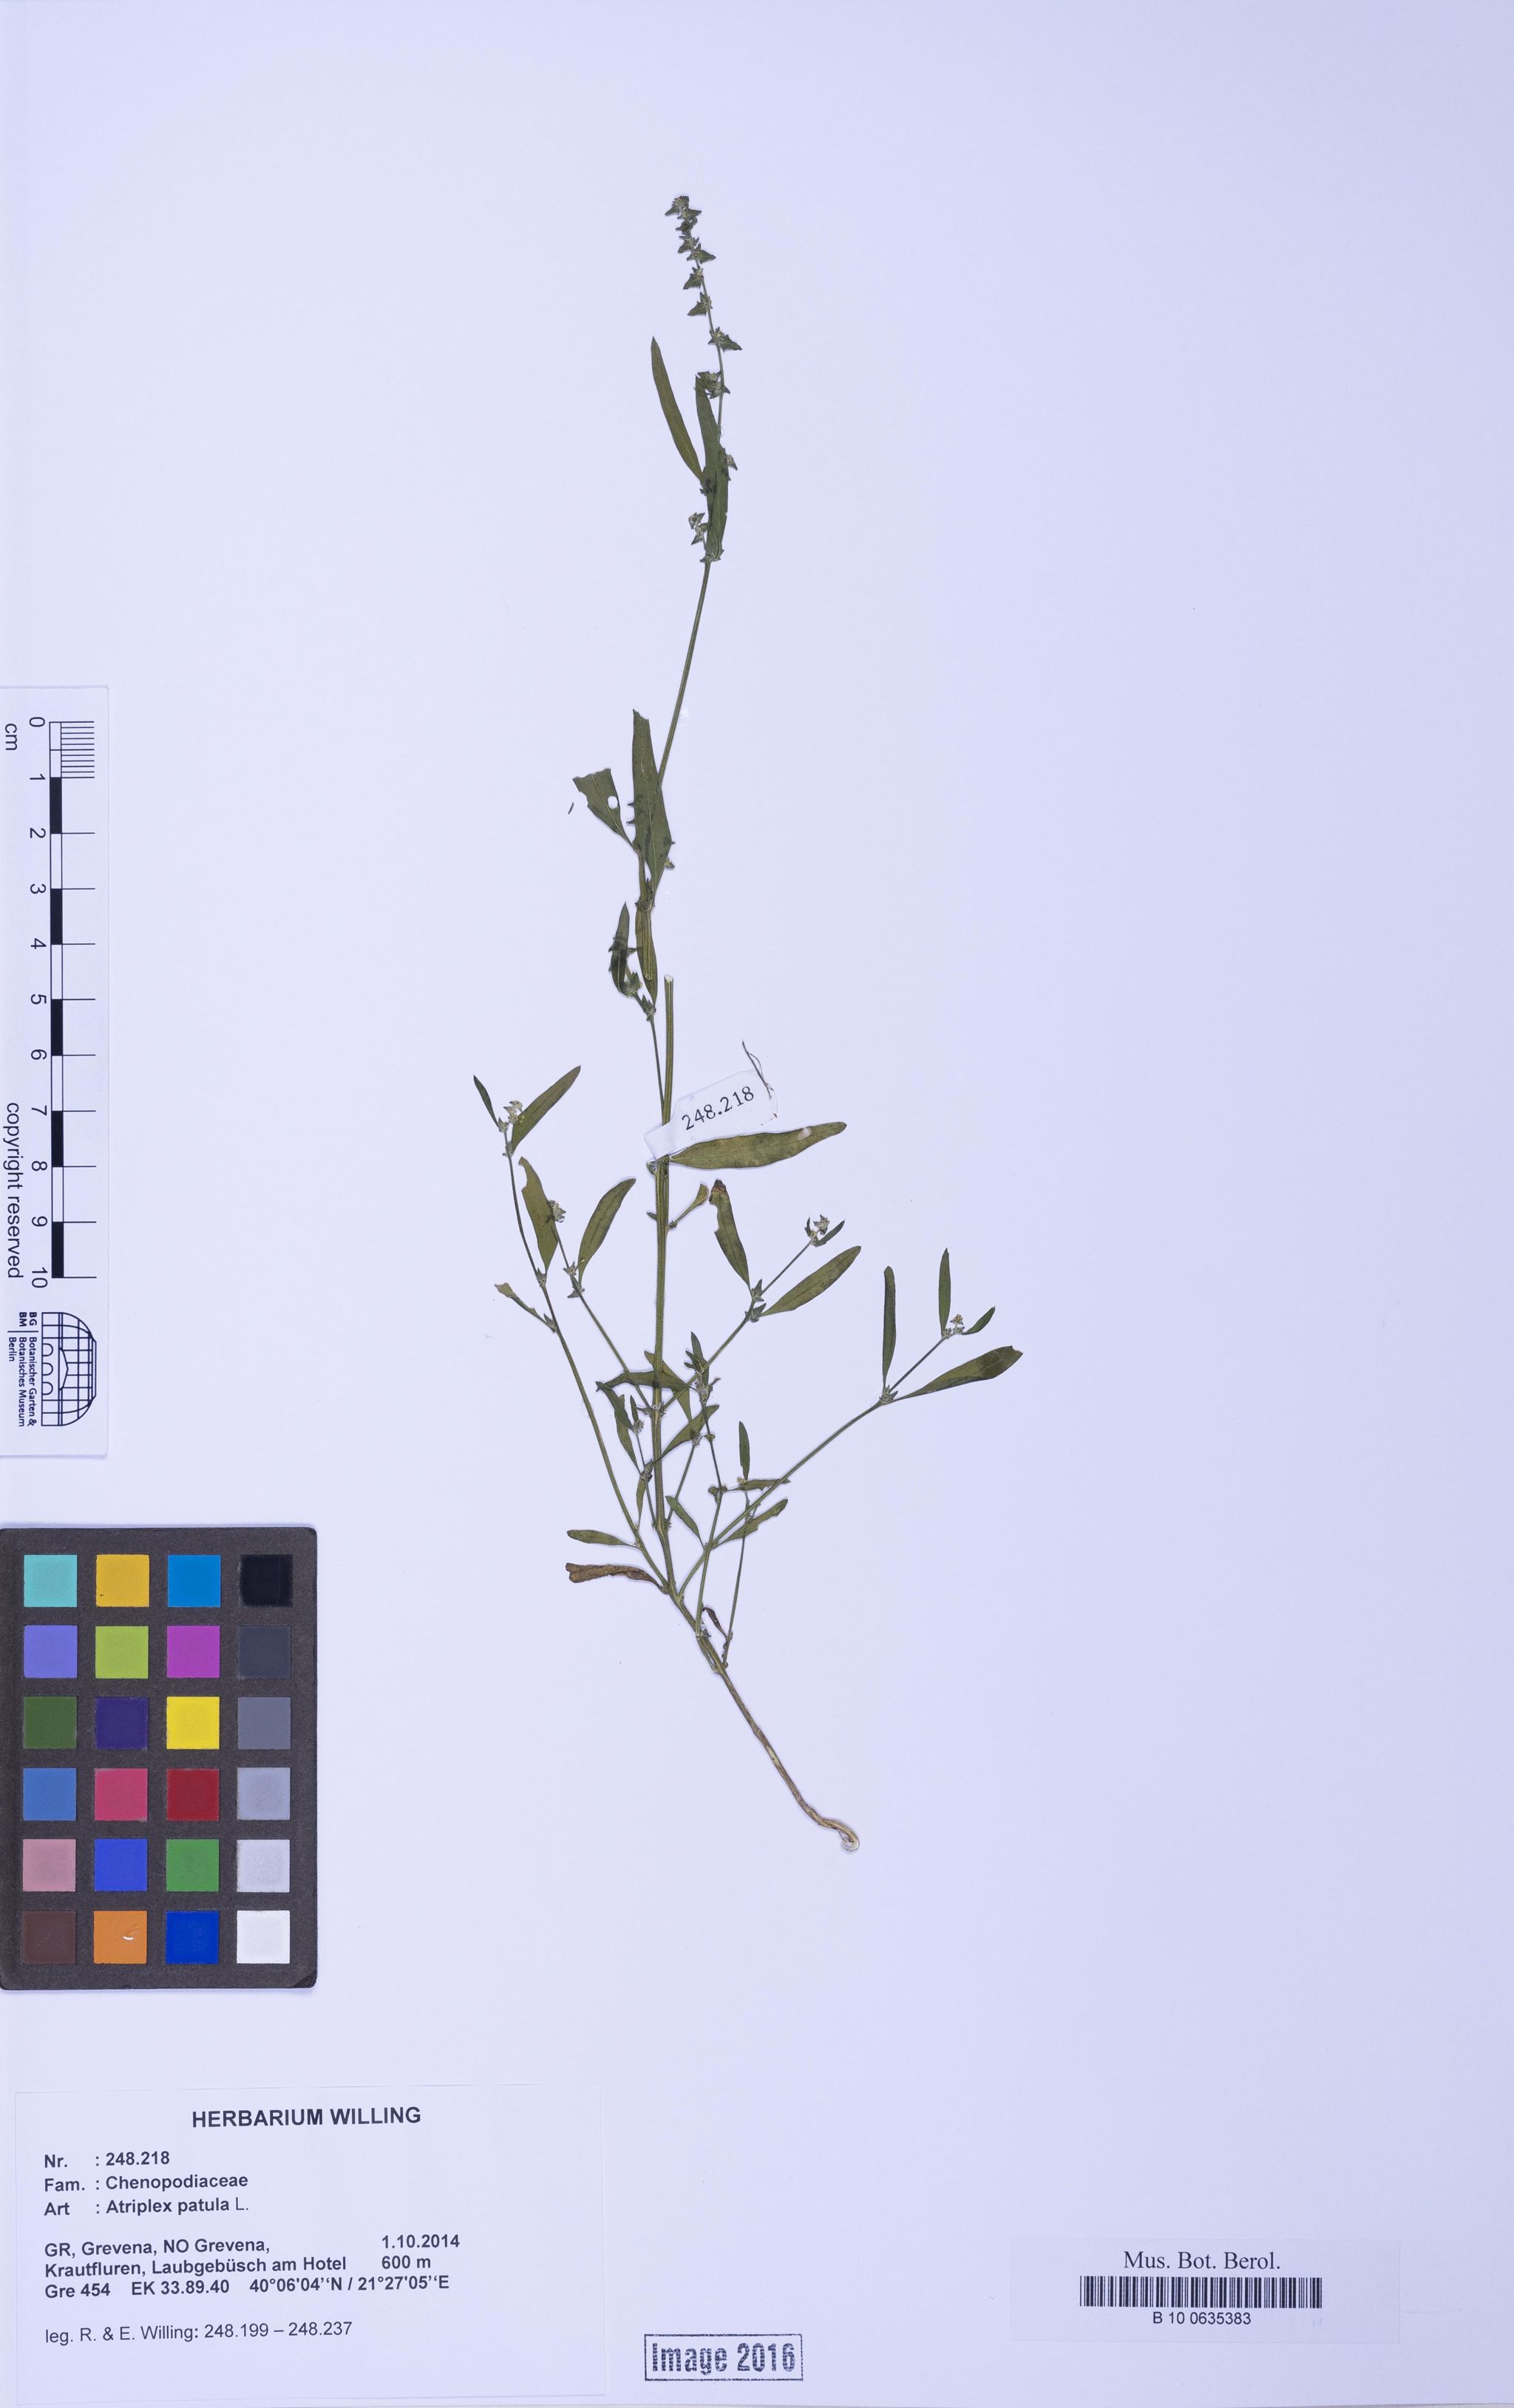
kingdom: Plantae
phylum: Tracheophyta
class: Magnoliopsida
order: Caryophyllales
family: Amaranthaceae
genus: Atriplex
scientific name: Atriplex patula
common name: Common orache
